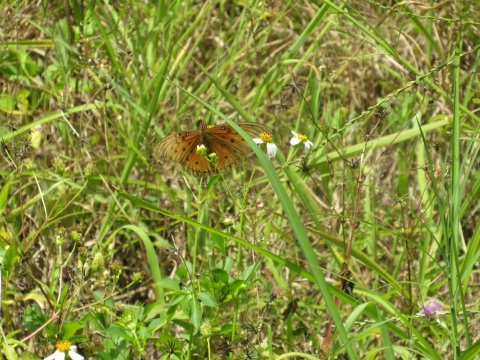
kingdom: Animalia
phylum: Arthropoda
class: Insecta
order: Lepidoptera
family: Nymphalidae
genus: Dione
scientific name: Dione vanillae
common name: Gulf Fritillary
